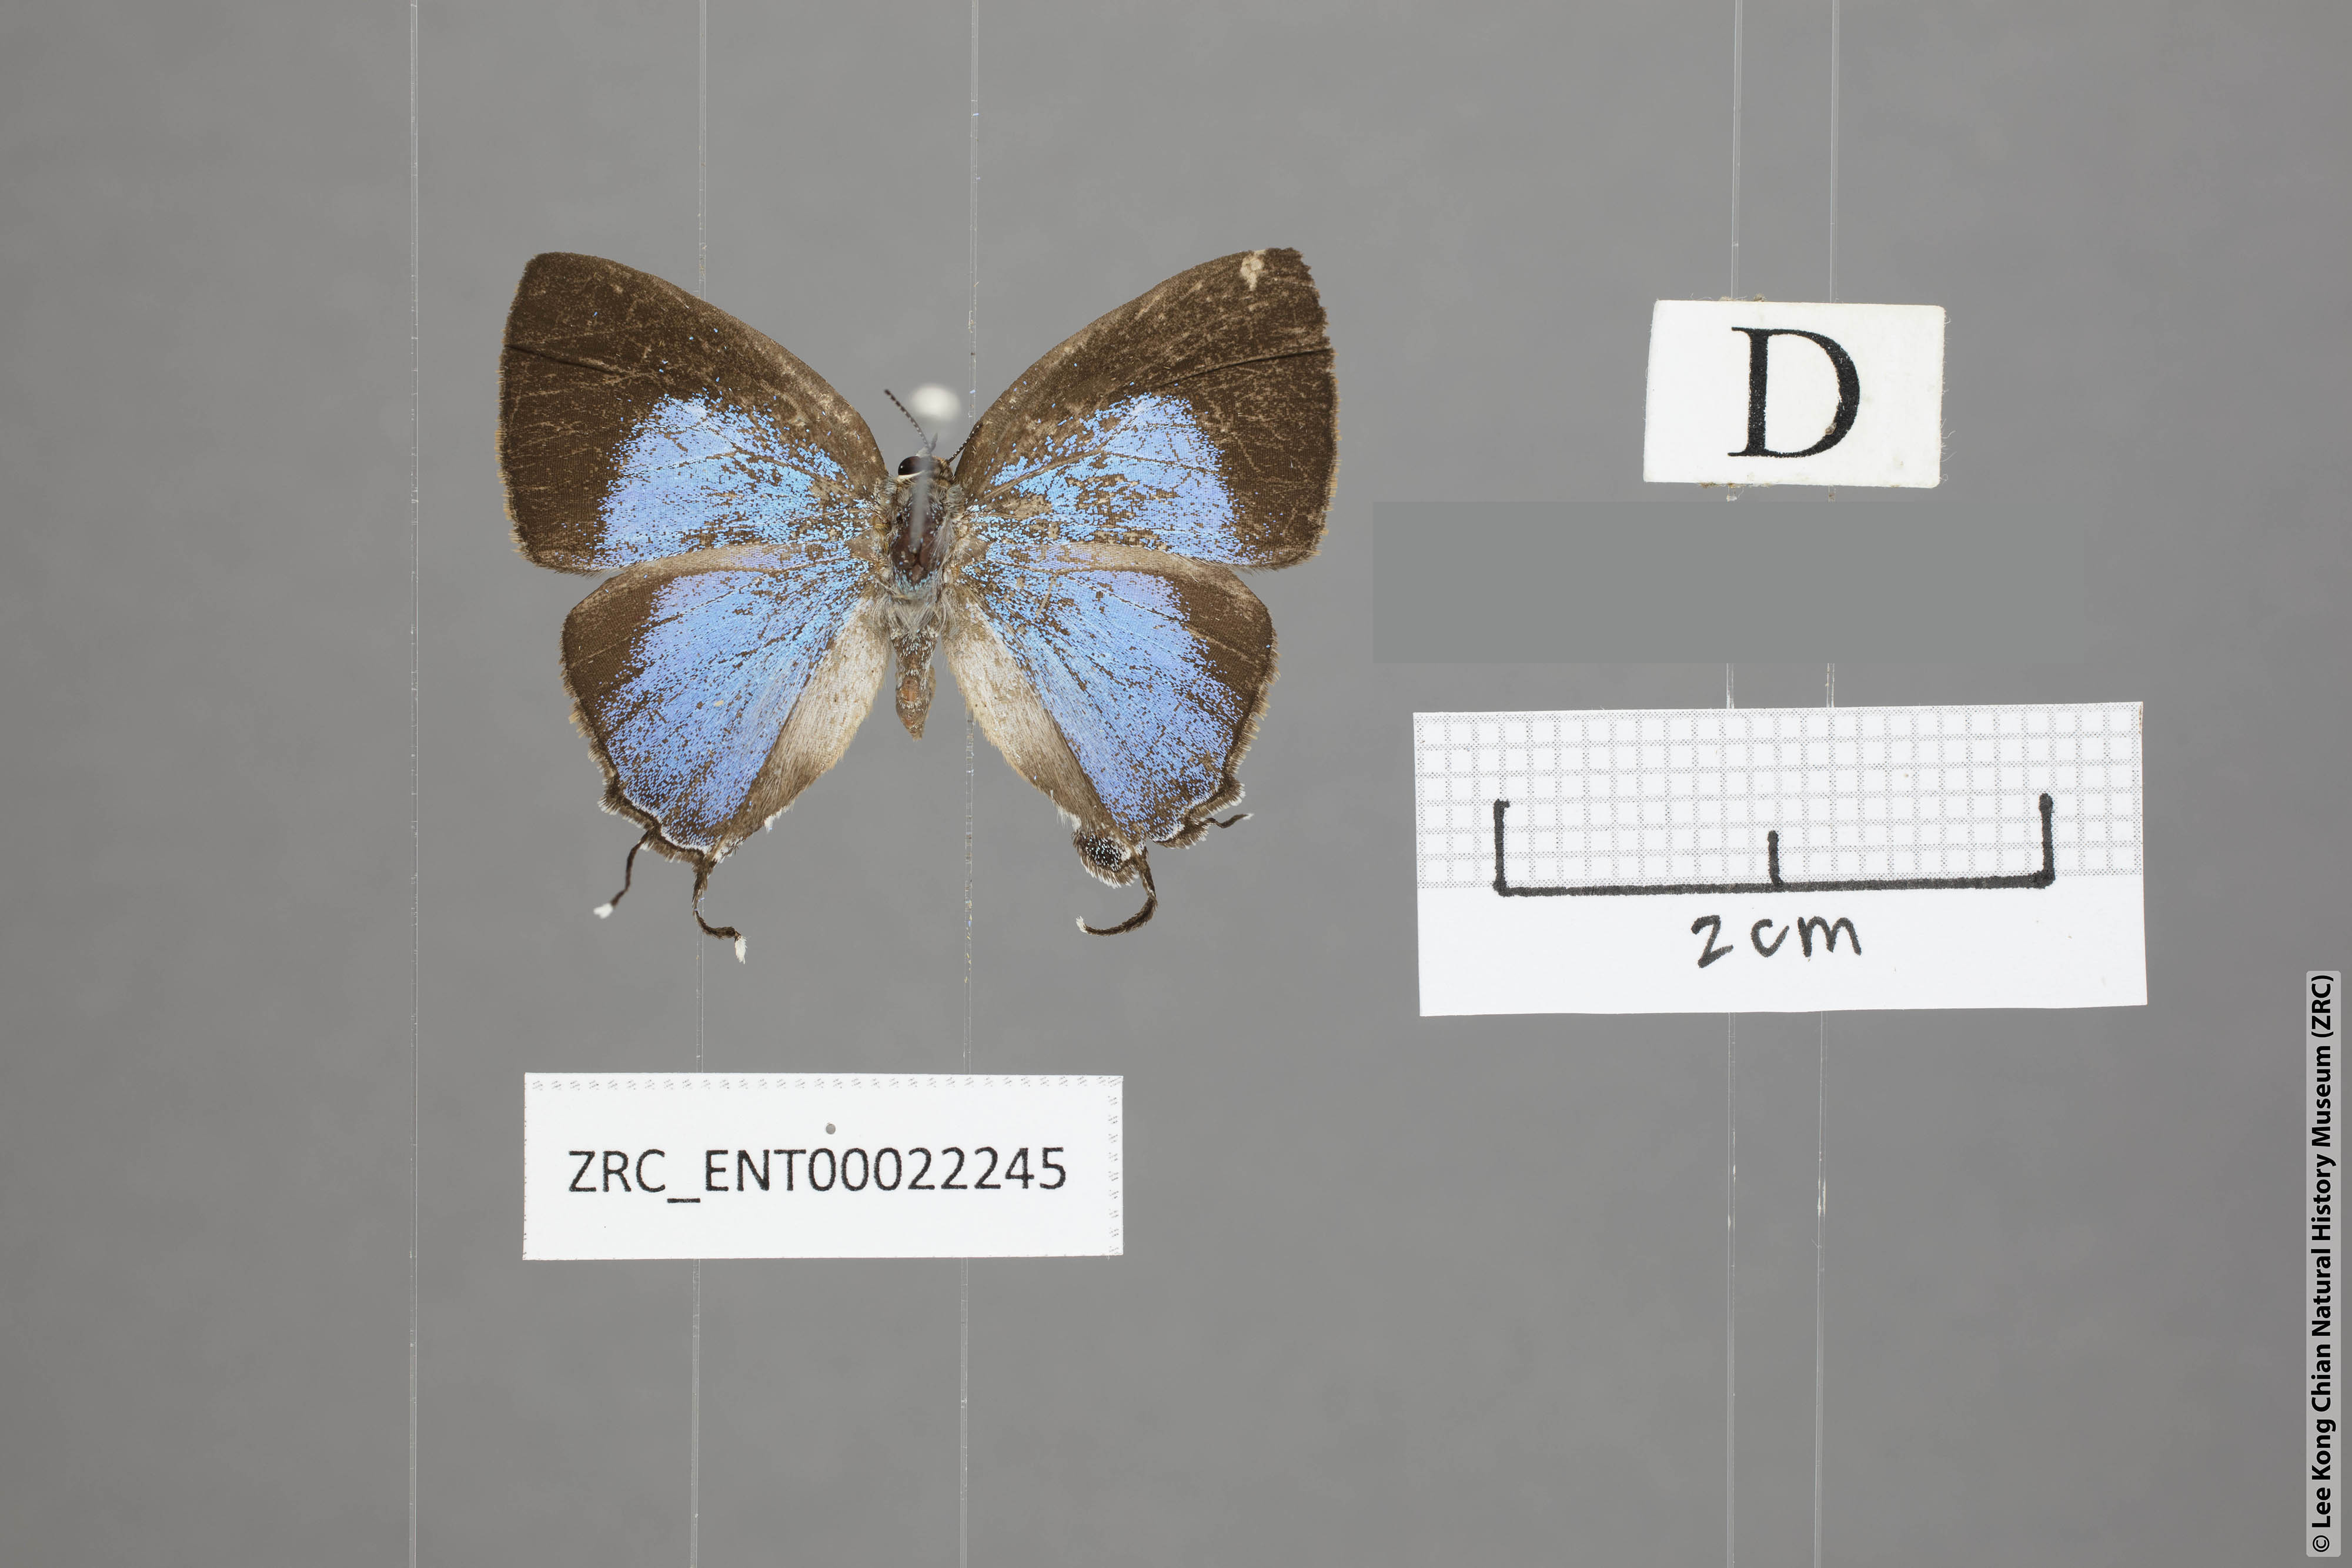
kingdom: Animalia
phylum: Arthropoda
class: Insecta
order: Lepidoptera
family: Lycaenidae
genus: Tajuria
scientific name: Tajuria yajna
